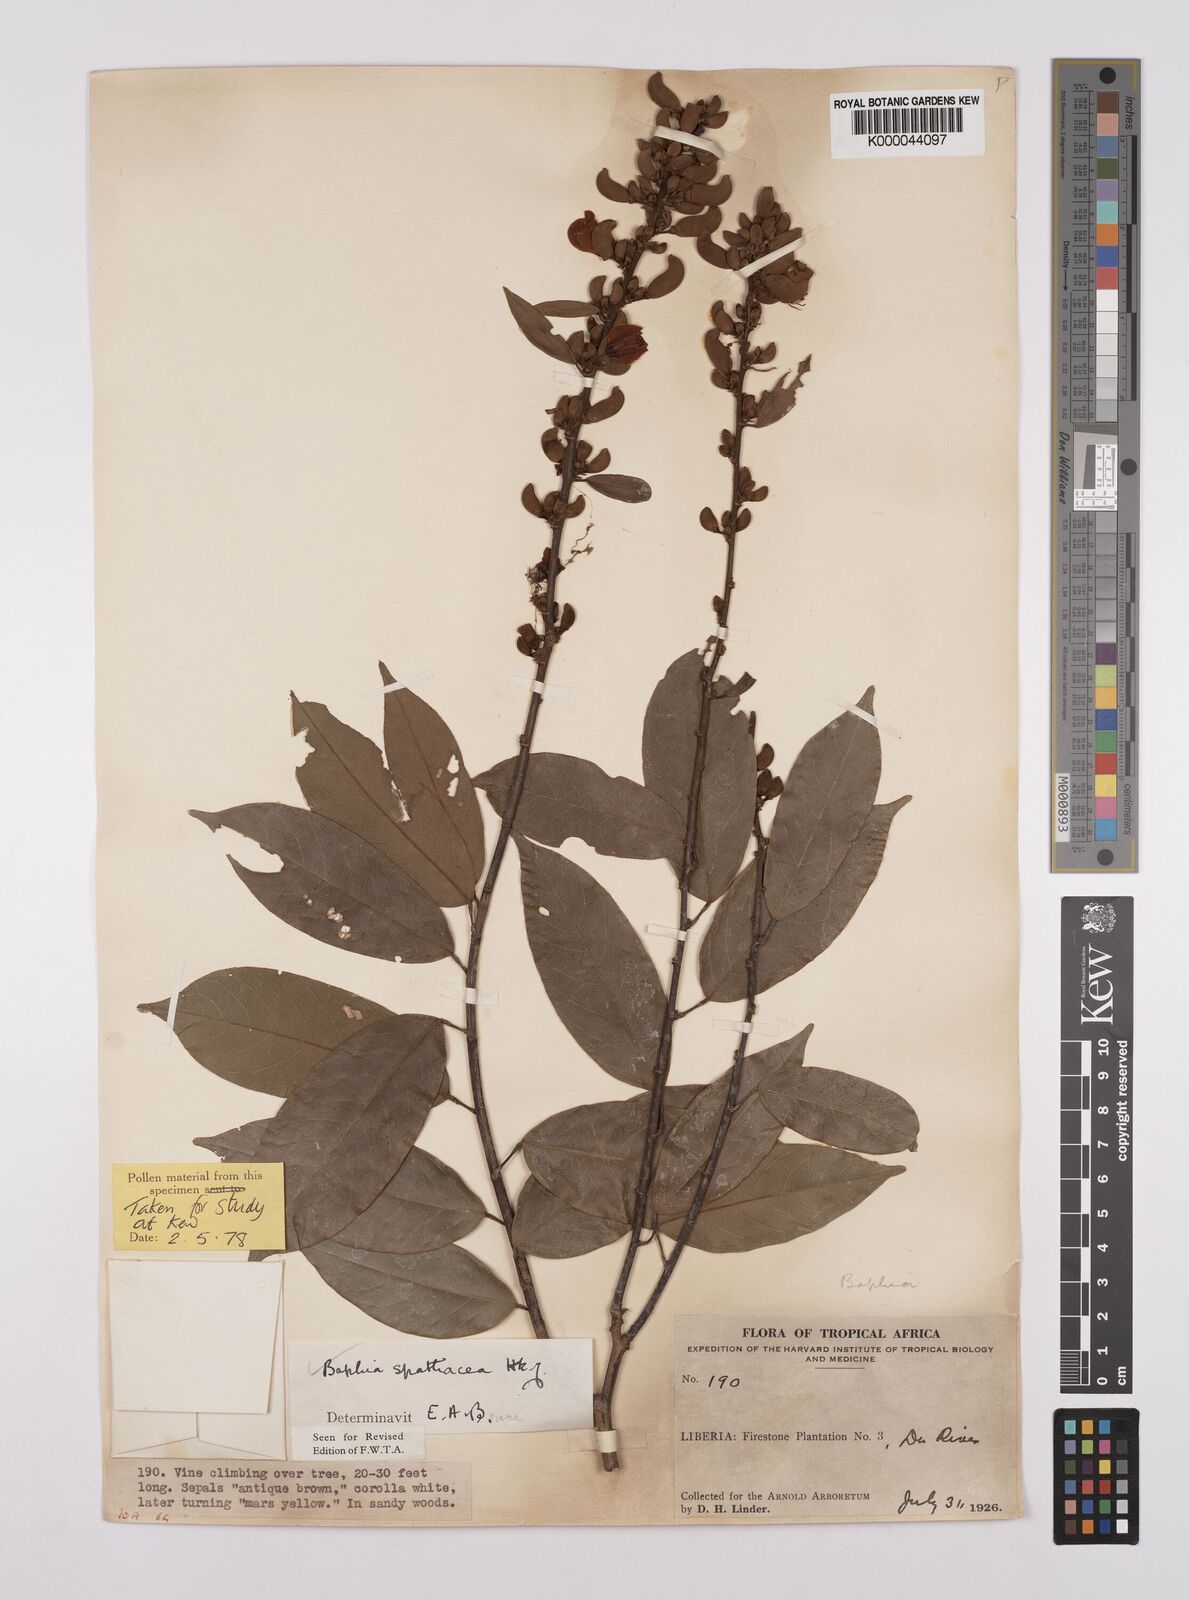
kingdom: Plantae
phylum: Tracheophyta
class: Magnoliopsida
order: Fabales
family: Fabaceae
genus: Baphia
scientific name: Baphia spathacea
